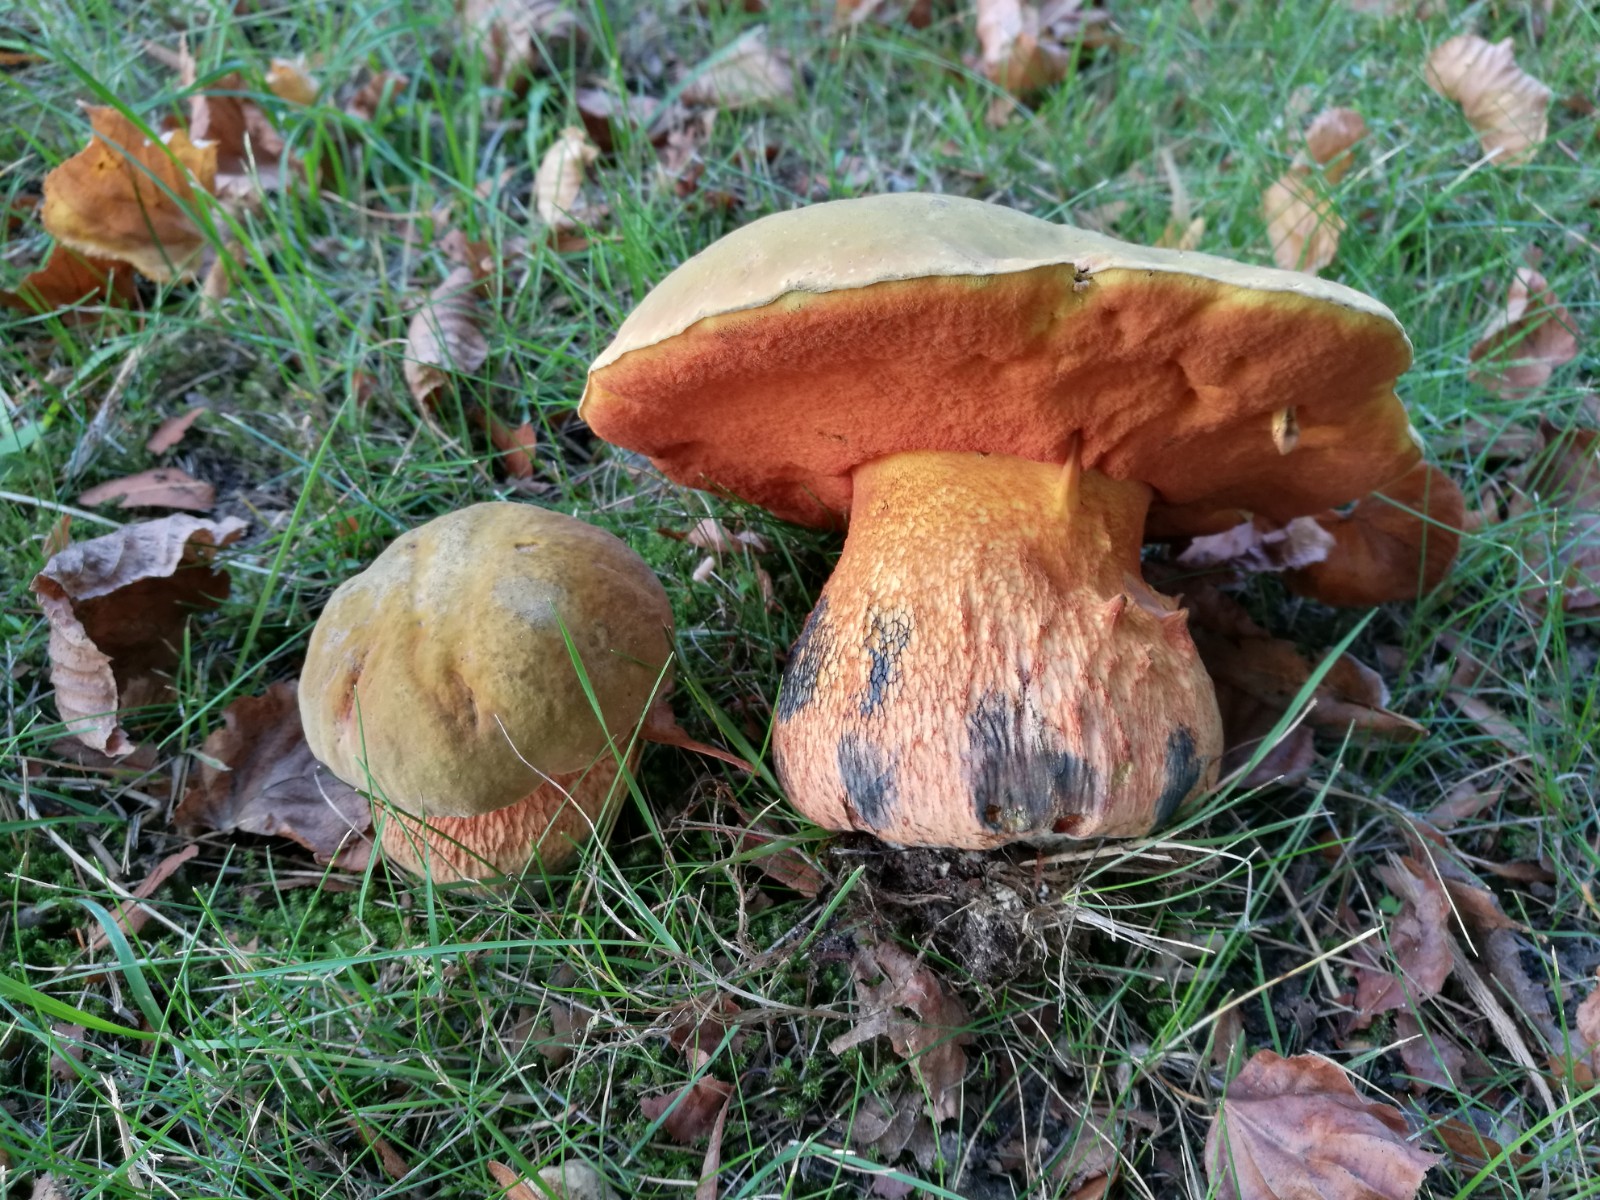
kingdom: Fungi
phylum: Basidiomycota
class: Agaricomycetes
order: Boletales
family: Boletaceae
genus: Suillellus
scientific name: Suillellus luridus
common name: netstokket indigorørhat
